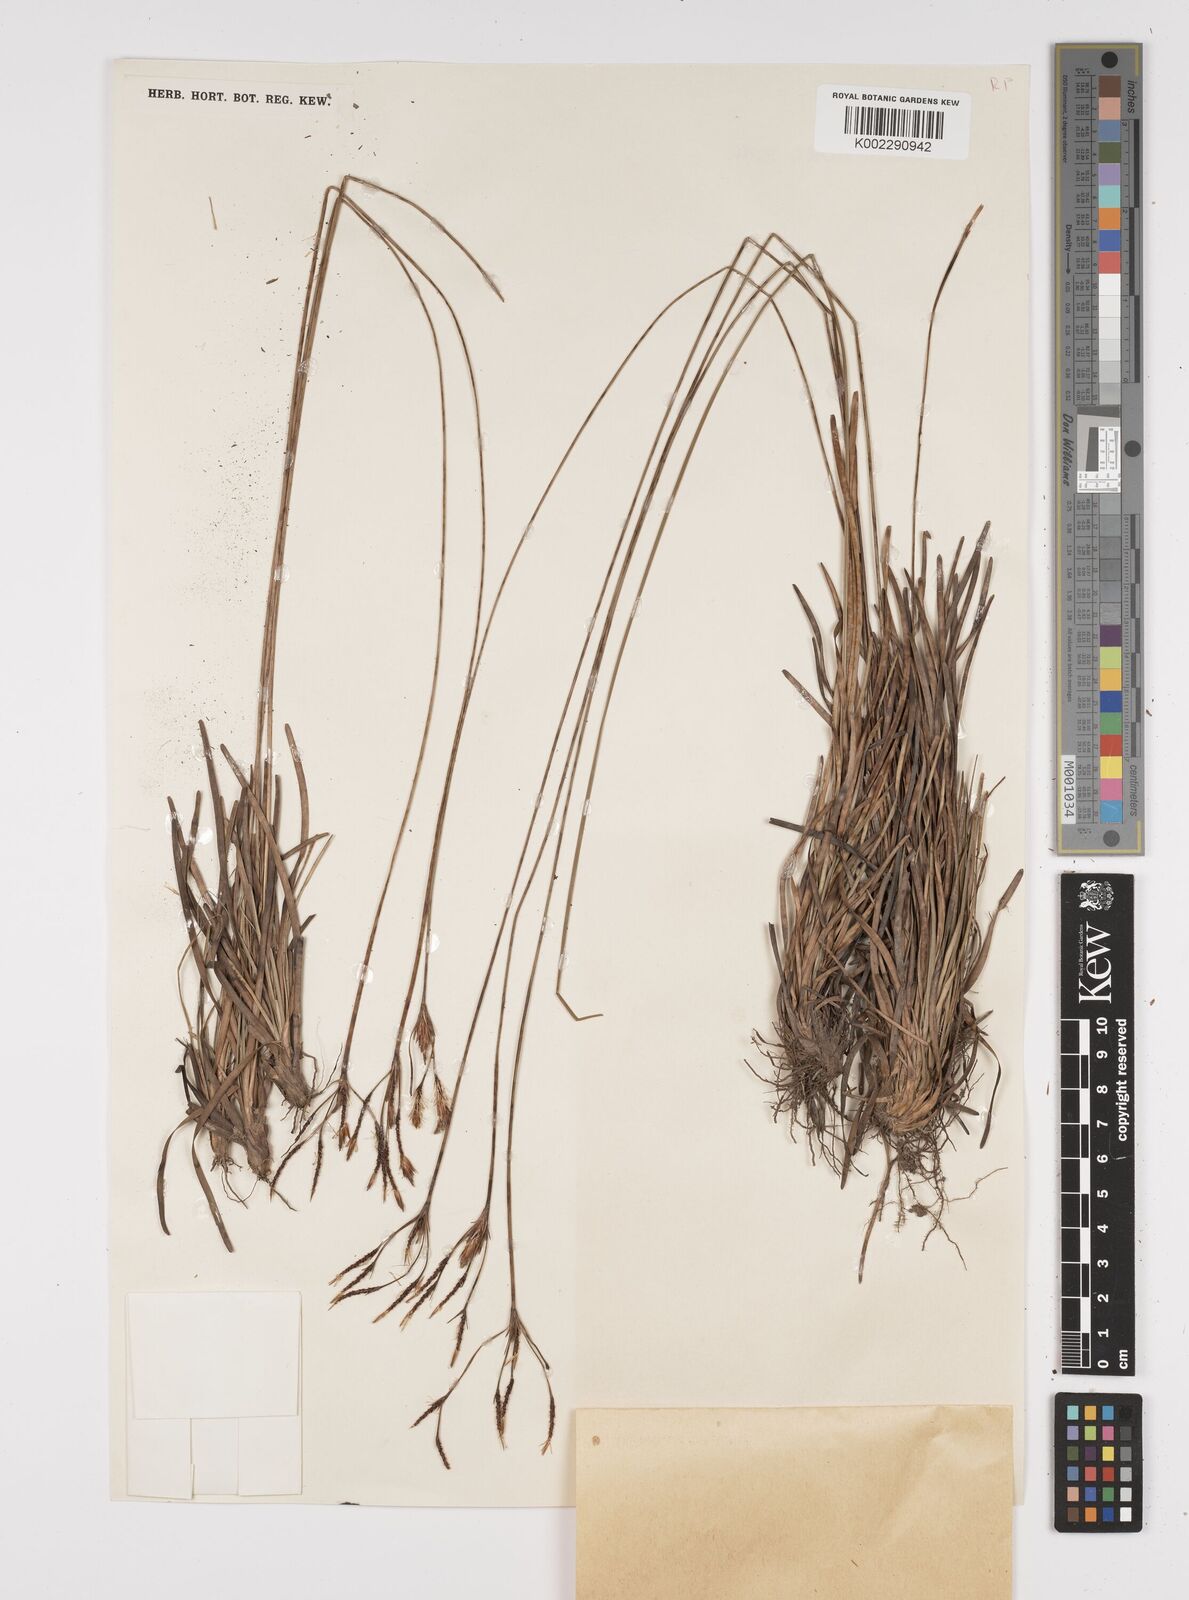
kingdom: Plantae
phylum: Tracheophyta
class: Liliopsida
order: Poales
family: Cyperaceae
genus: Fimbristylis
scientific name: Fimbristylis insignis
